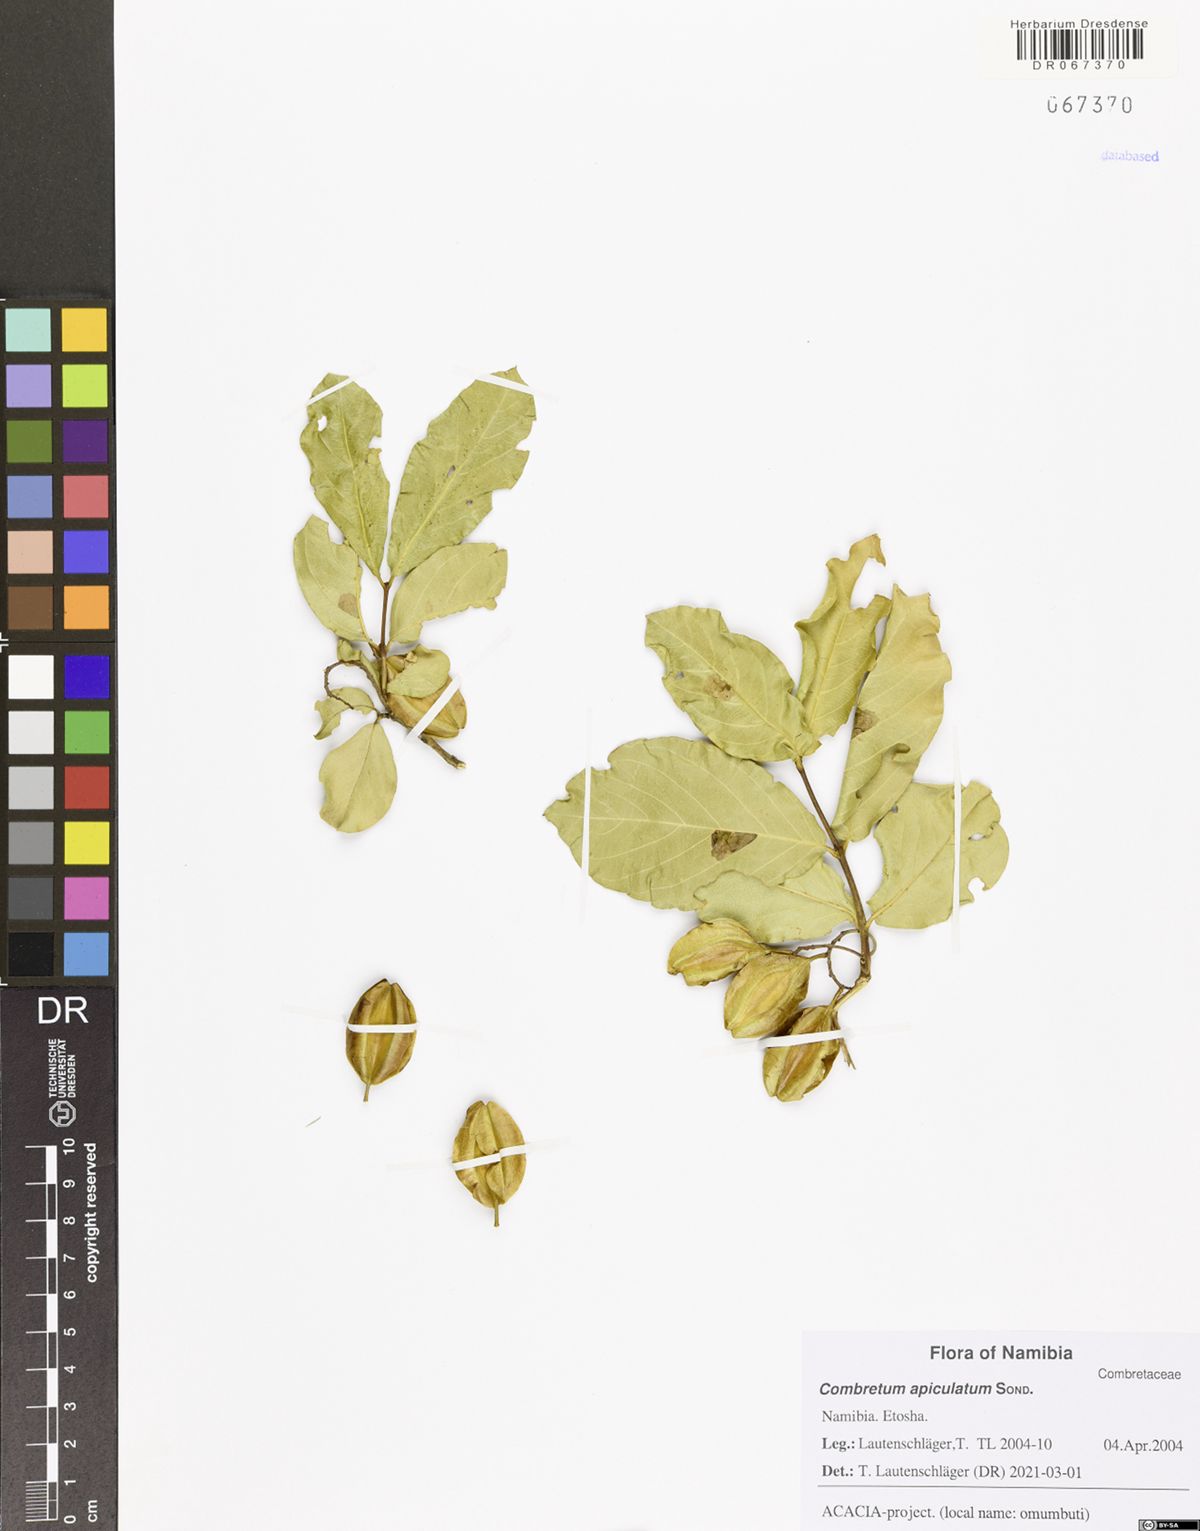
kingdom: Plantae
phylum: Tracheophyta
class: Magnoliopsida
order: Myrtales
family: Combretaceae
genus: Combretum
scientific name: Combretum apiculatum
